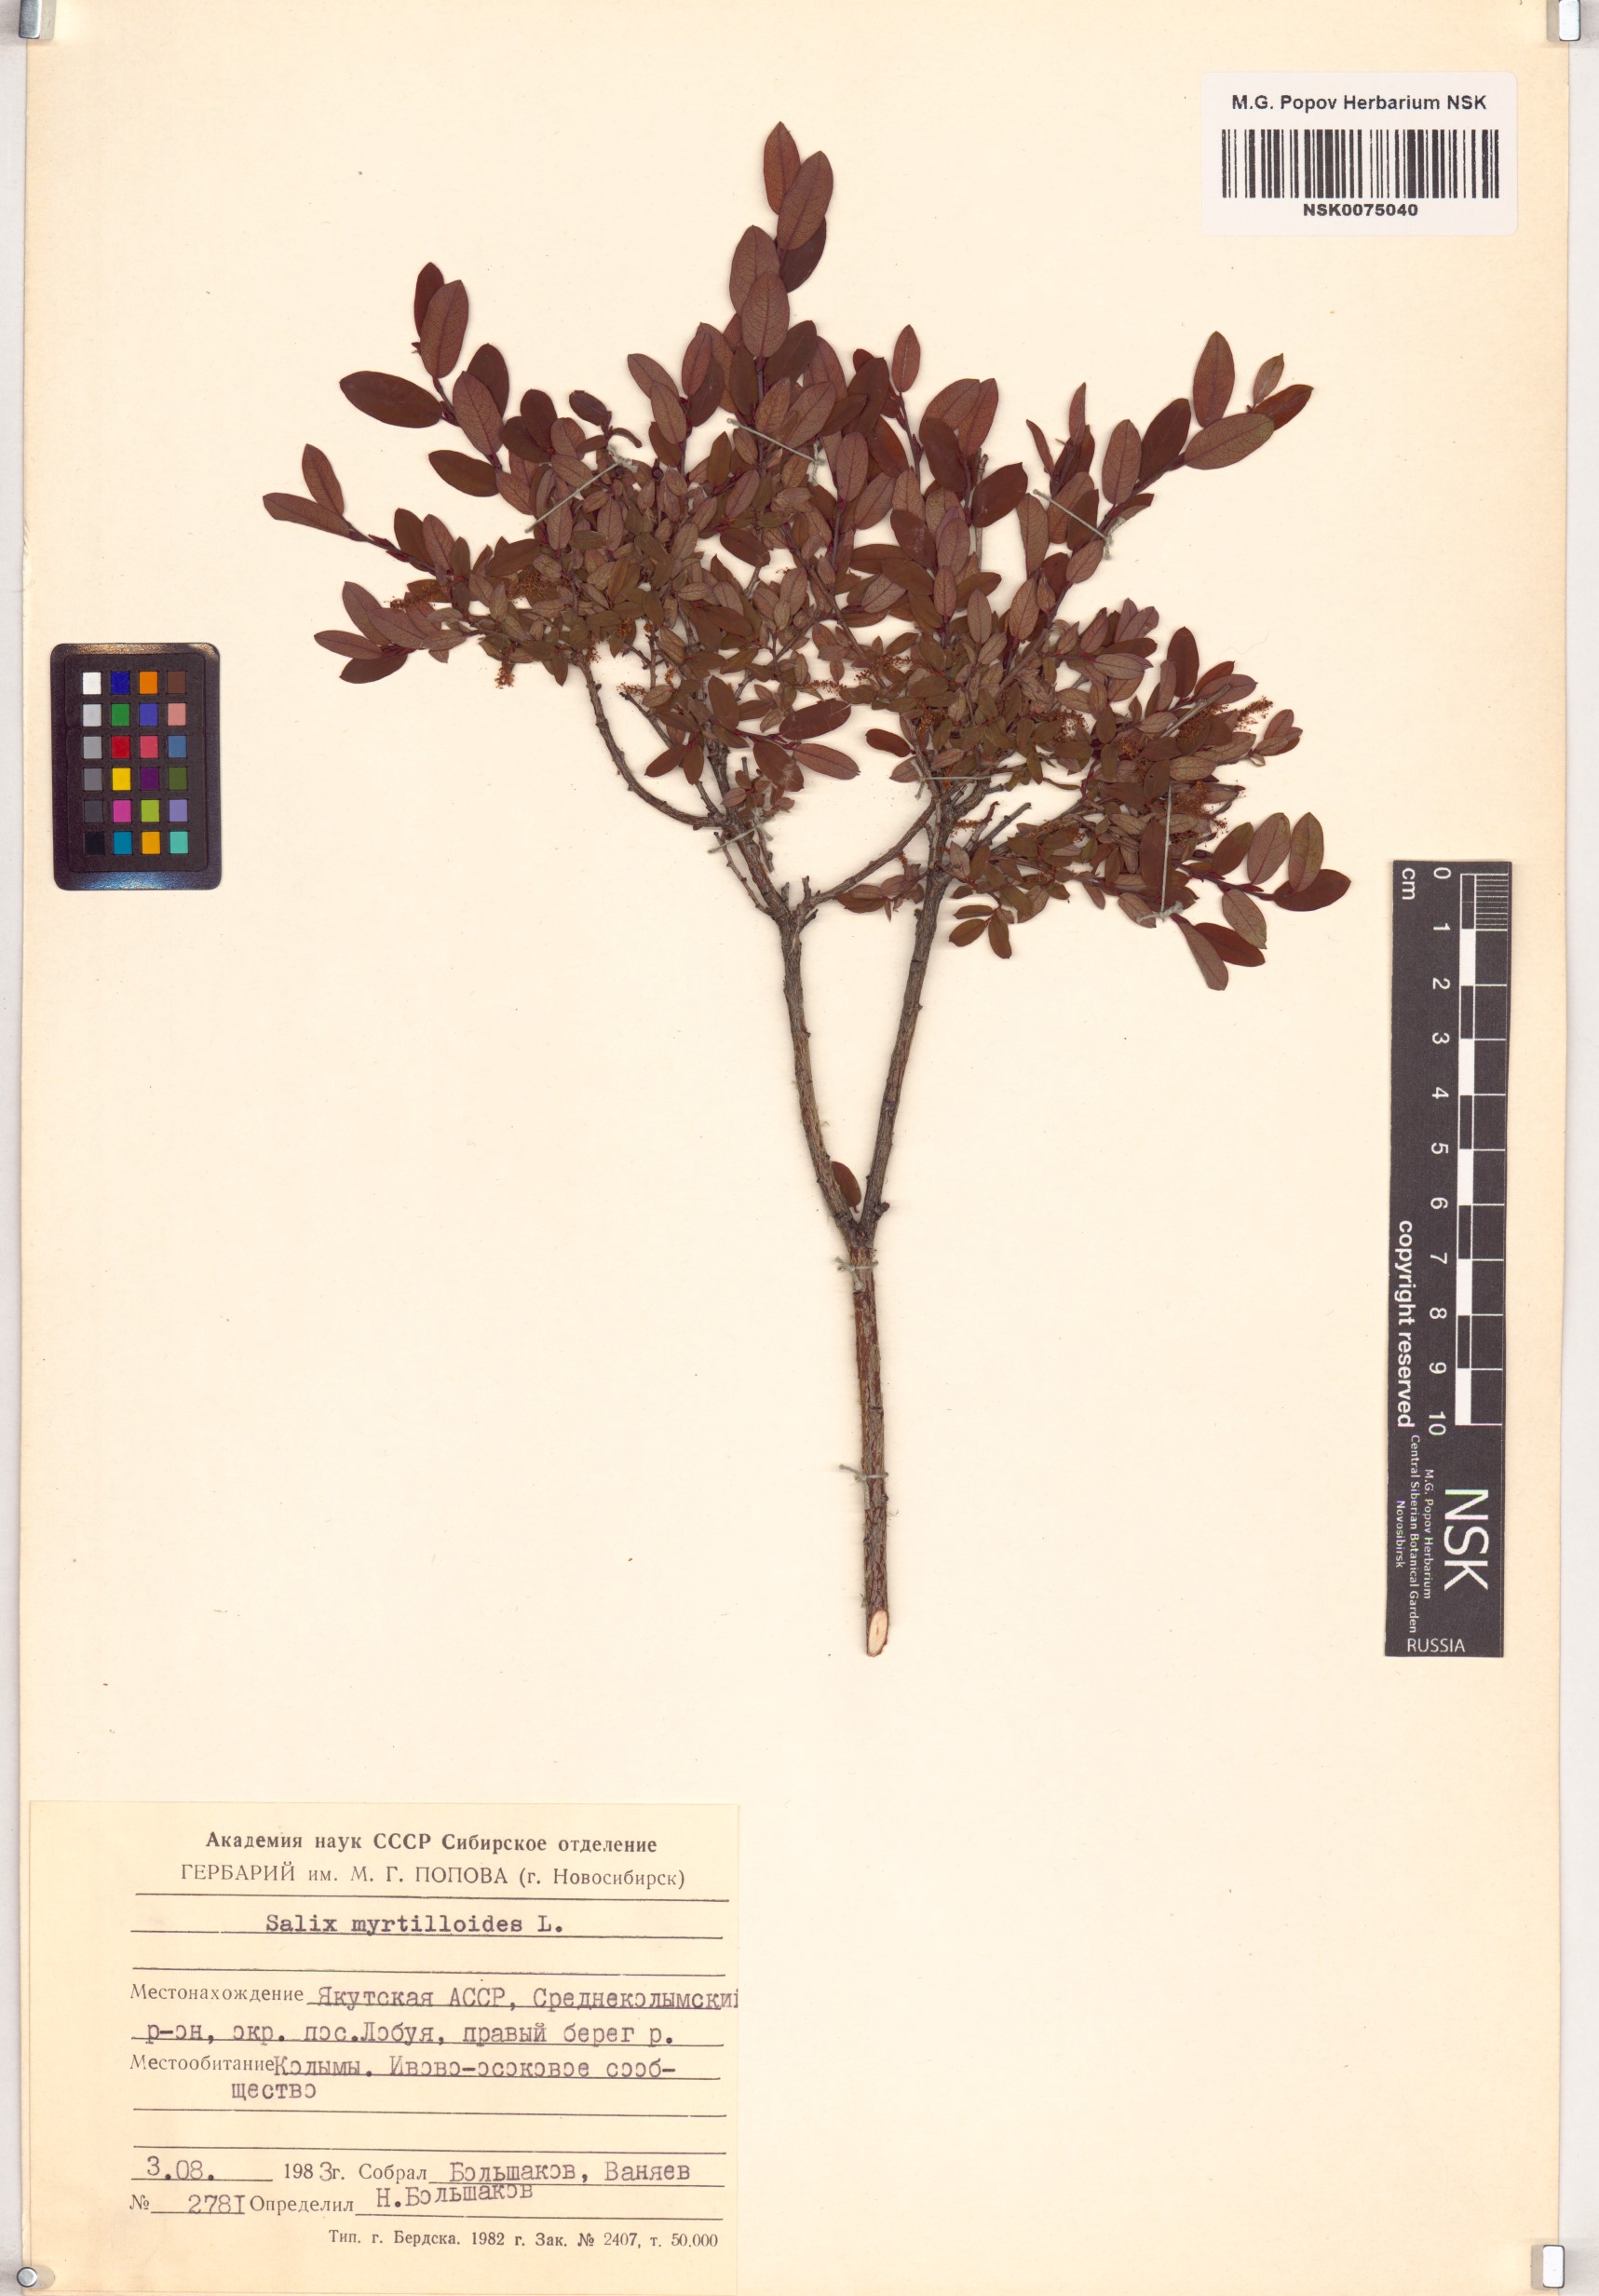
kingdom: Plantae
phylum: Tracheophyta
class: Magnoliopsida
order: Malpighiales
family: Salicaceae
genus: Salix
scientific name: Salix myrtilloides
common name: Myrtle-leaved willow
